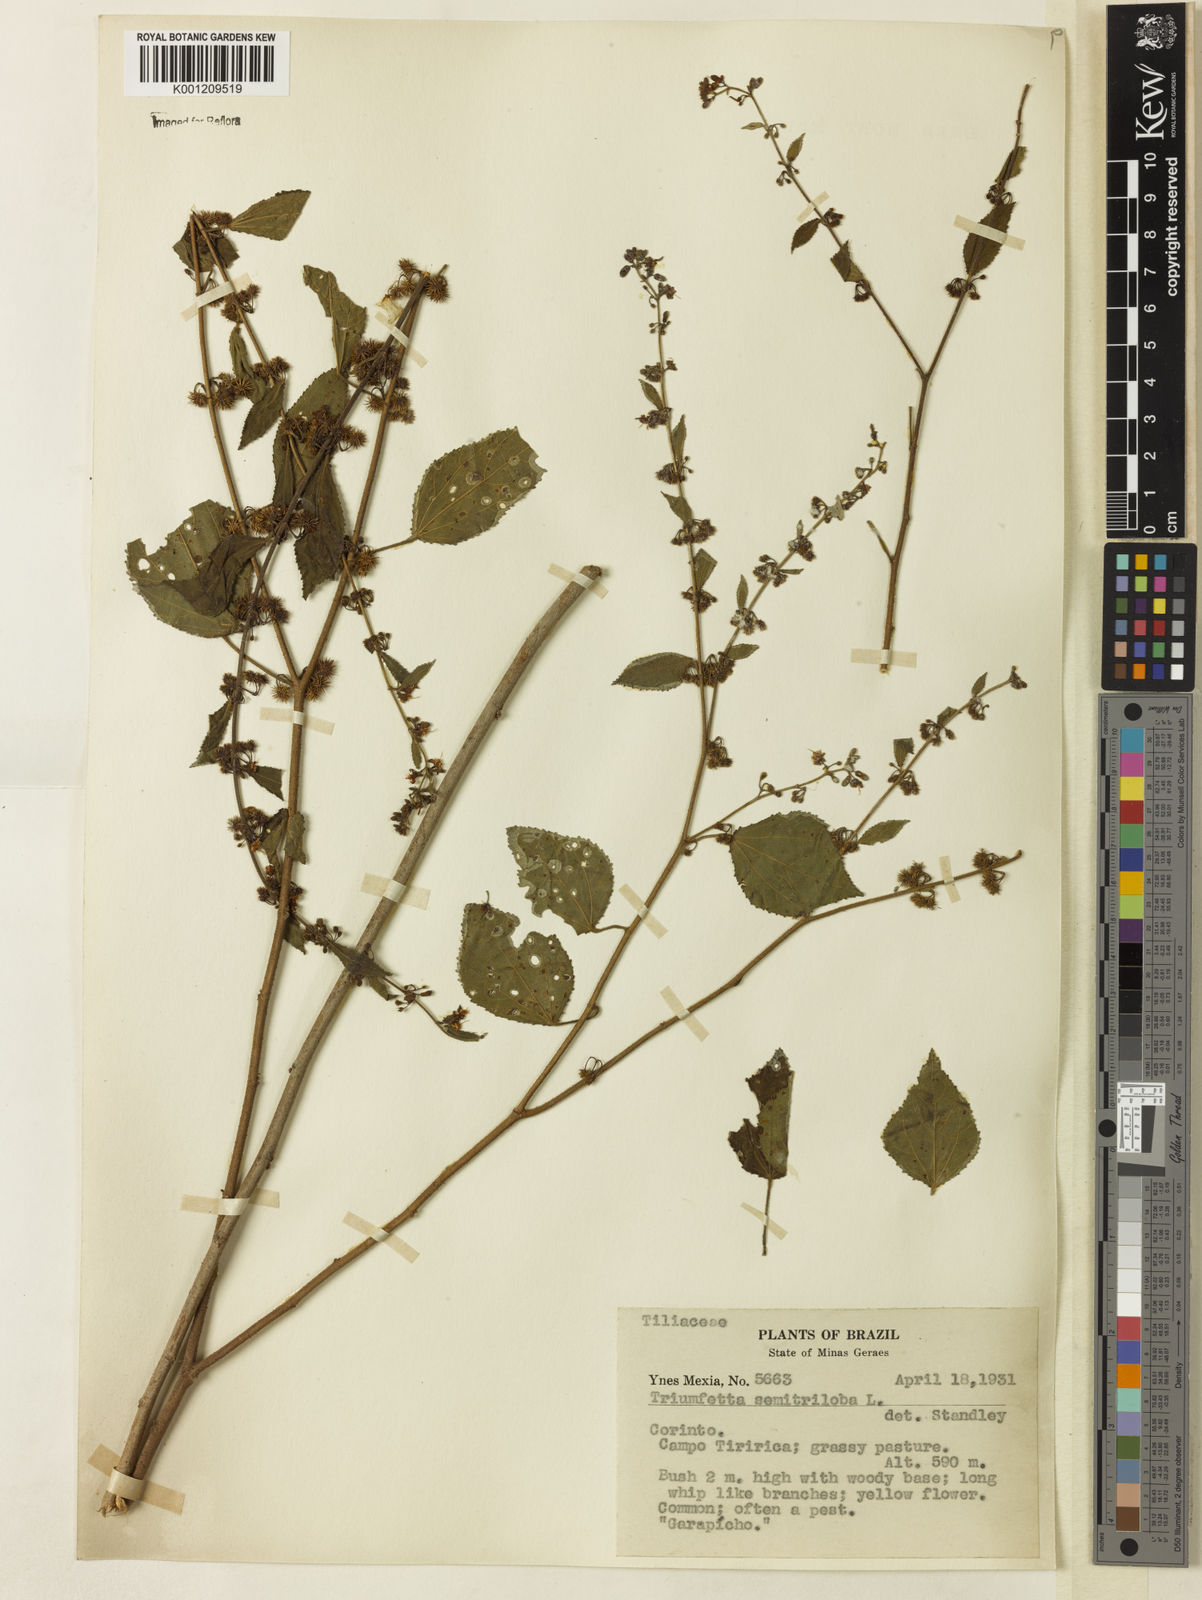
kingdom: Plantae
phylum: Tracheophyta
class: Magnoliopsida
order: Malvales
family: Malvaceae
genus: Triumfetta
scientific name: Triumfetta semitriloba
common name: Sacramento burbark
